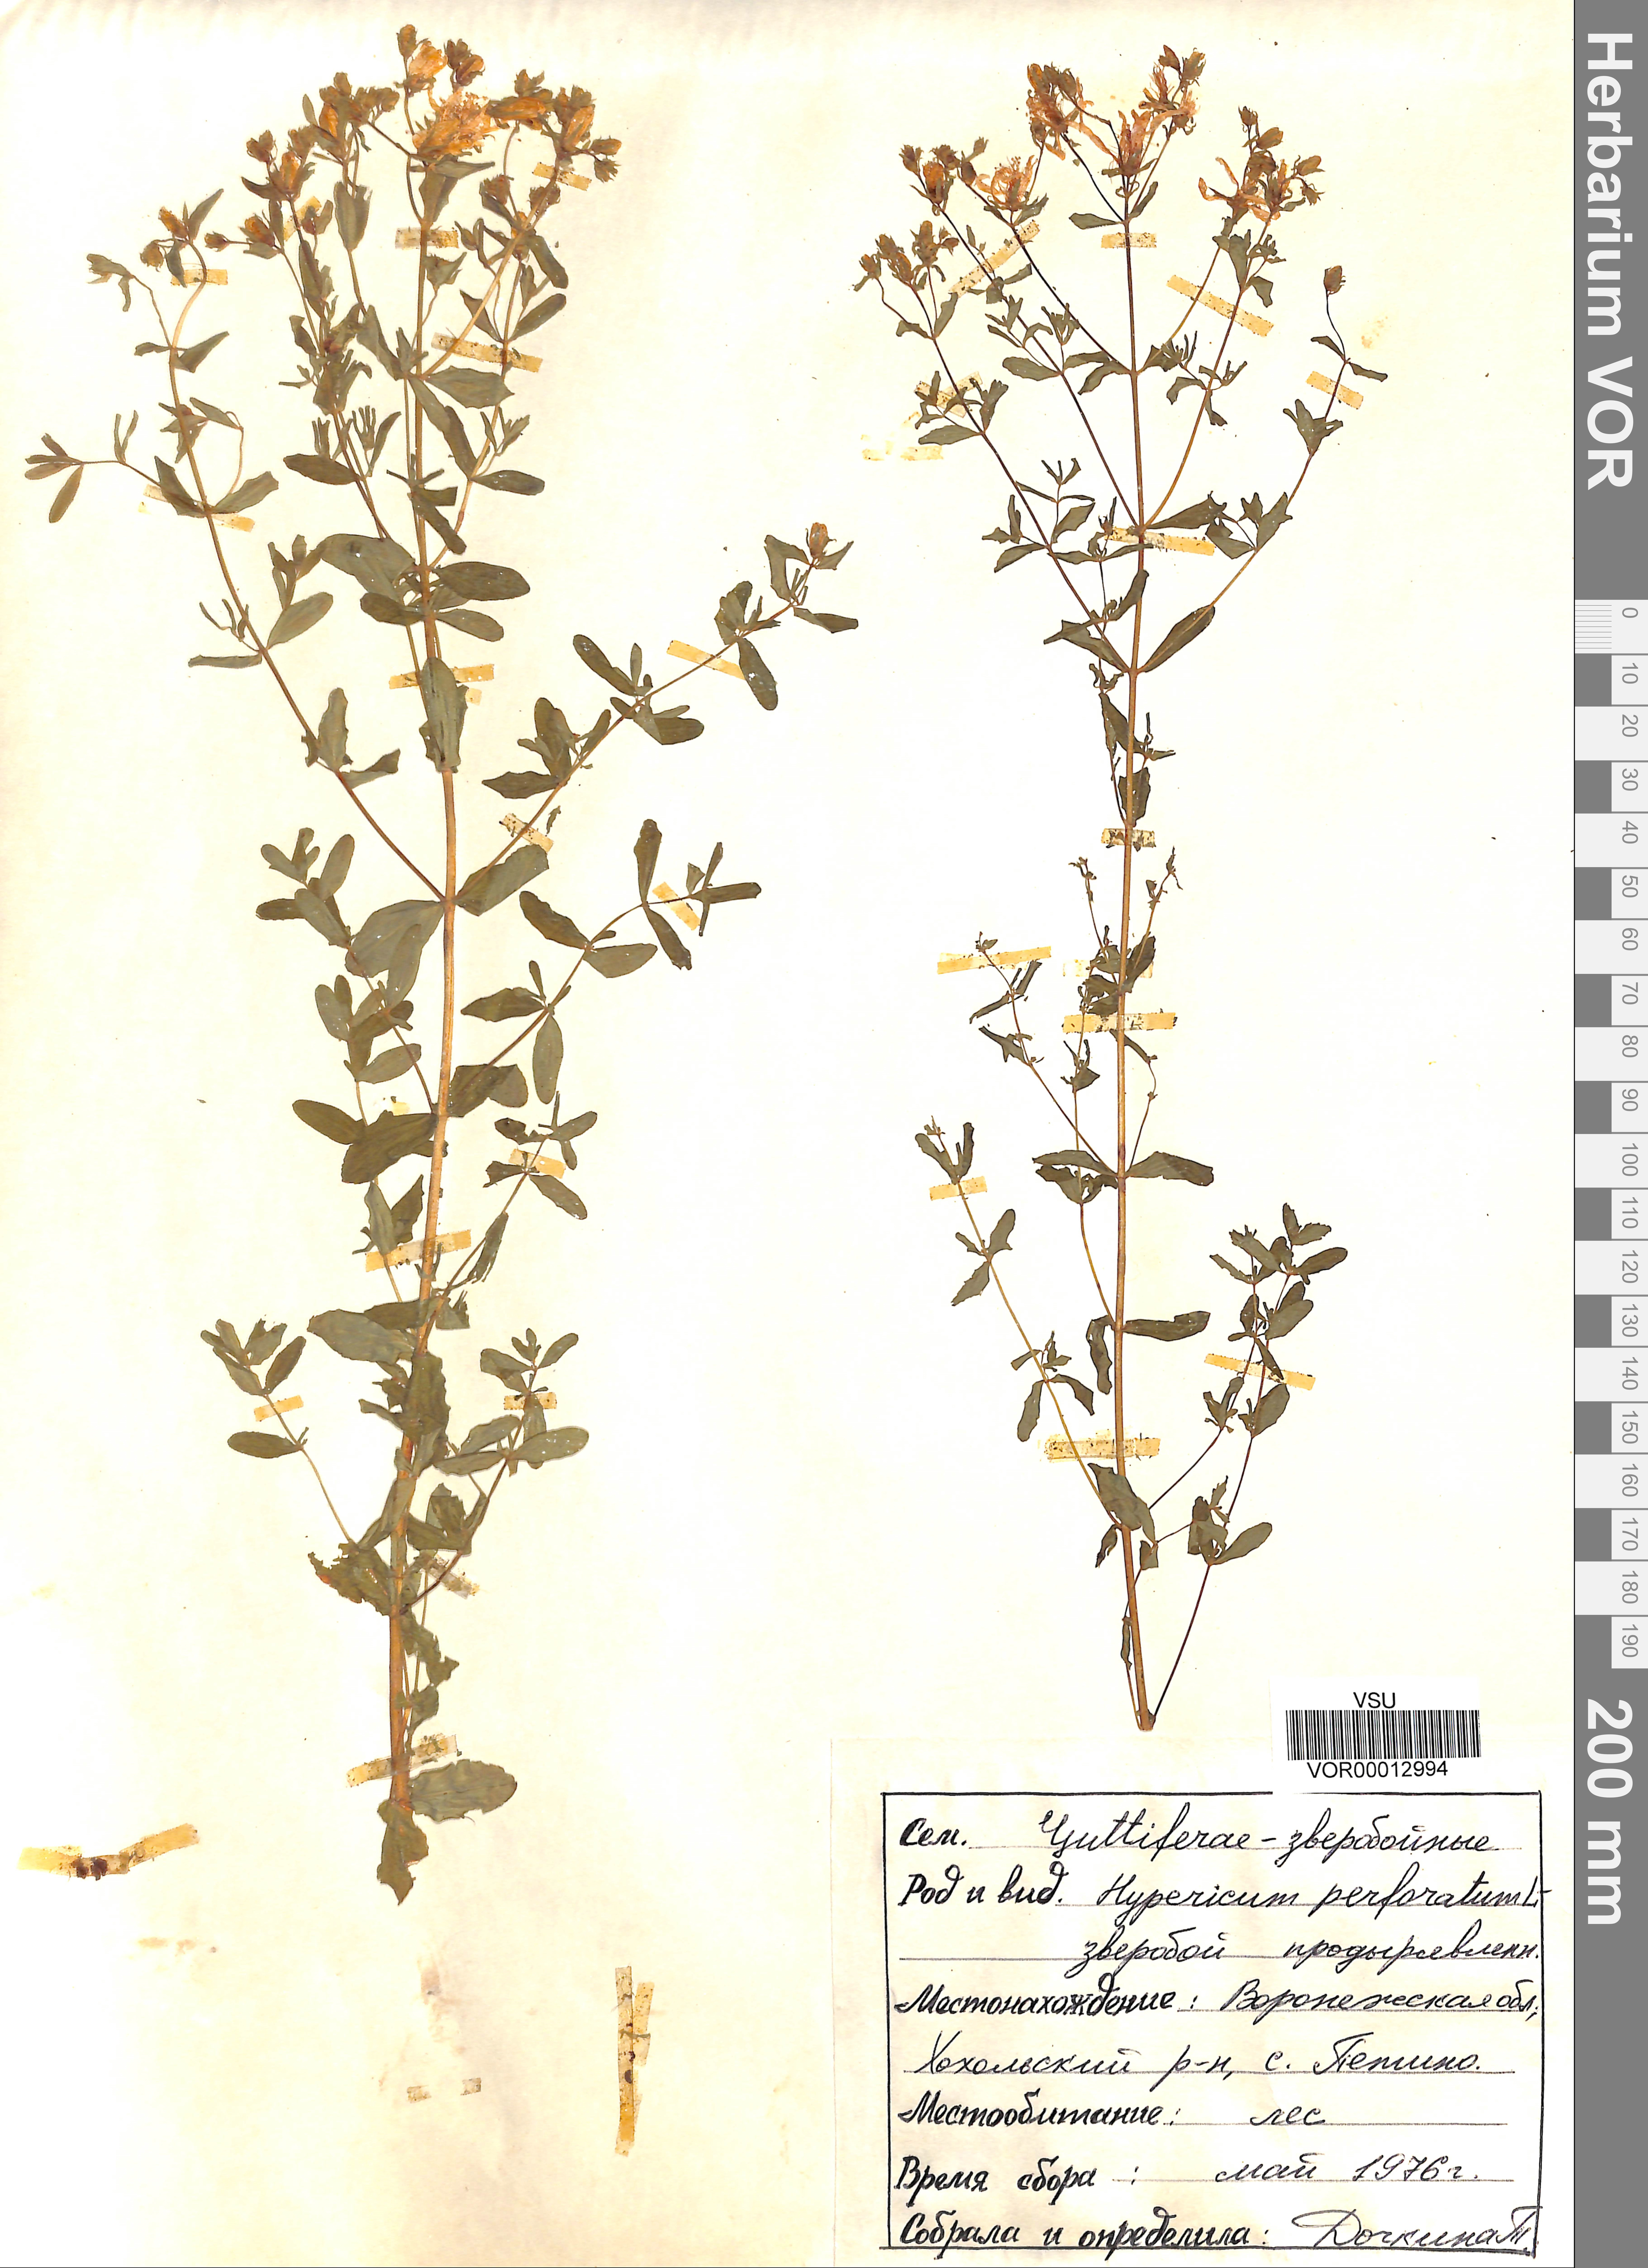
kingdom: Plantae
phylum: Tracheophyta
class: Magnoliopsida
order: Malpighiales
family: Hypericaceae
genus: Hypericum
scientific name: Hypericum perforatum
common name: Common st. johnswort
